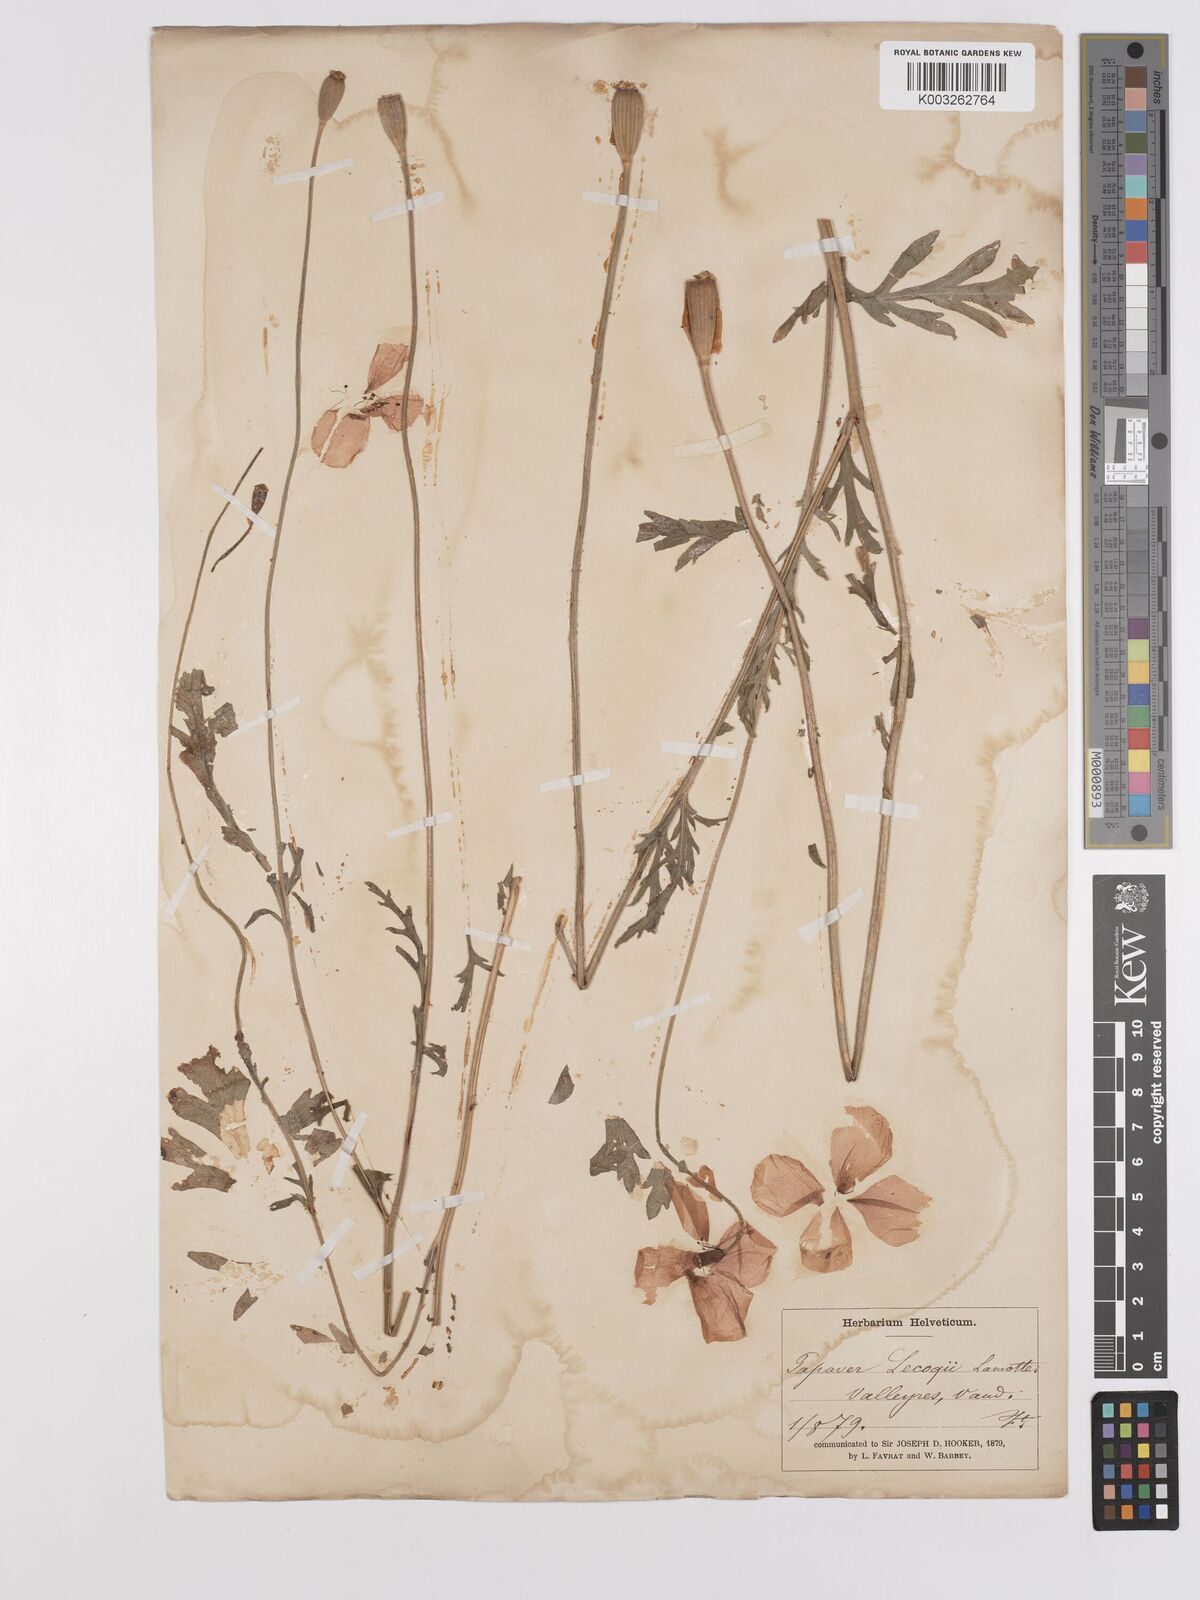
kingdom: Plantae
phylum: Tracheophyta
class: Magnoliopsida
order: Ranunculales
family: Papaveraceae
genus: Papaver
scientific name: Papaver lecoqii
